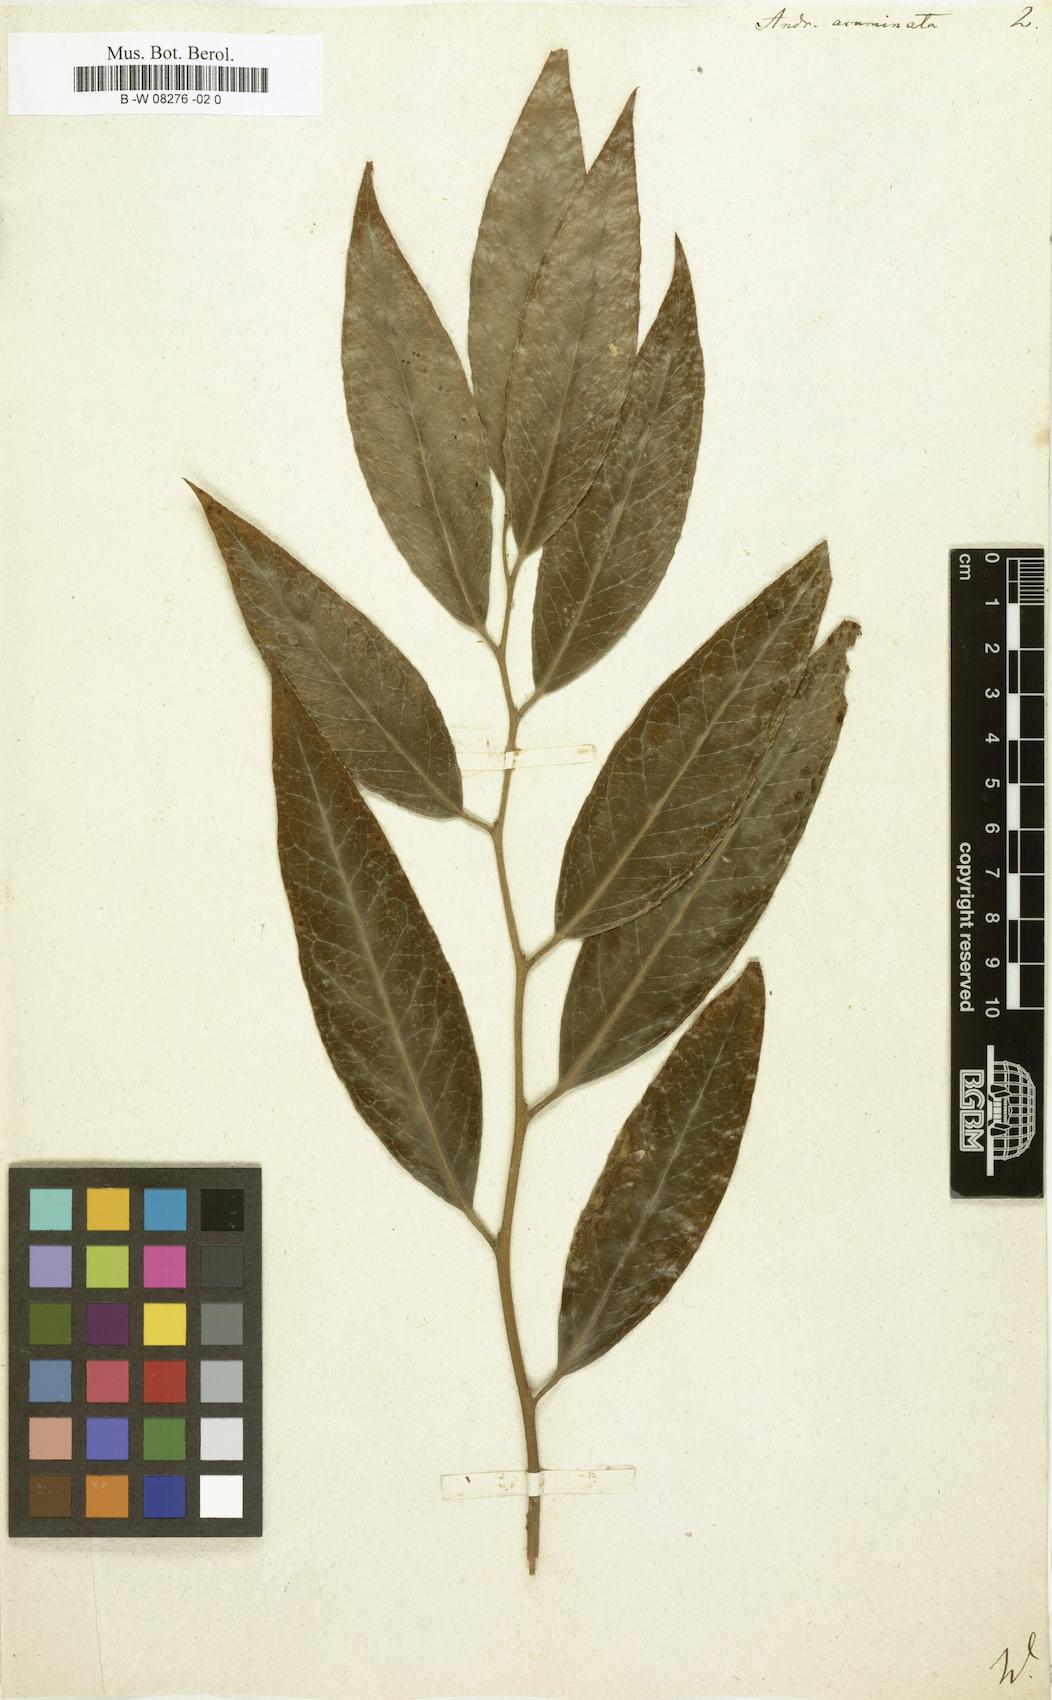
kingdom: Plantae
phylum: Tracheophyta
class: Magnoliopsida
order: Ericales
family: Ericaceae
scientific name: Ericaceae
